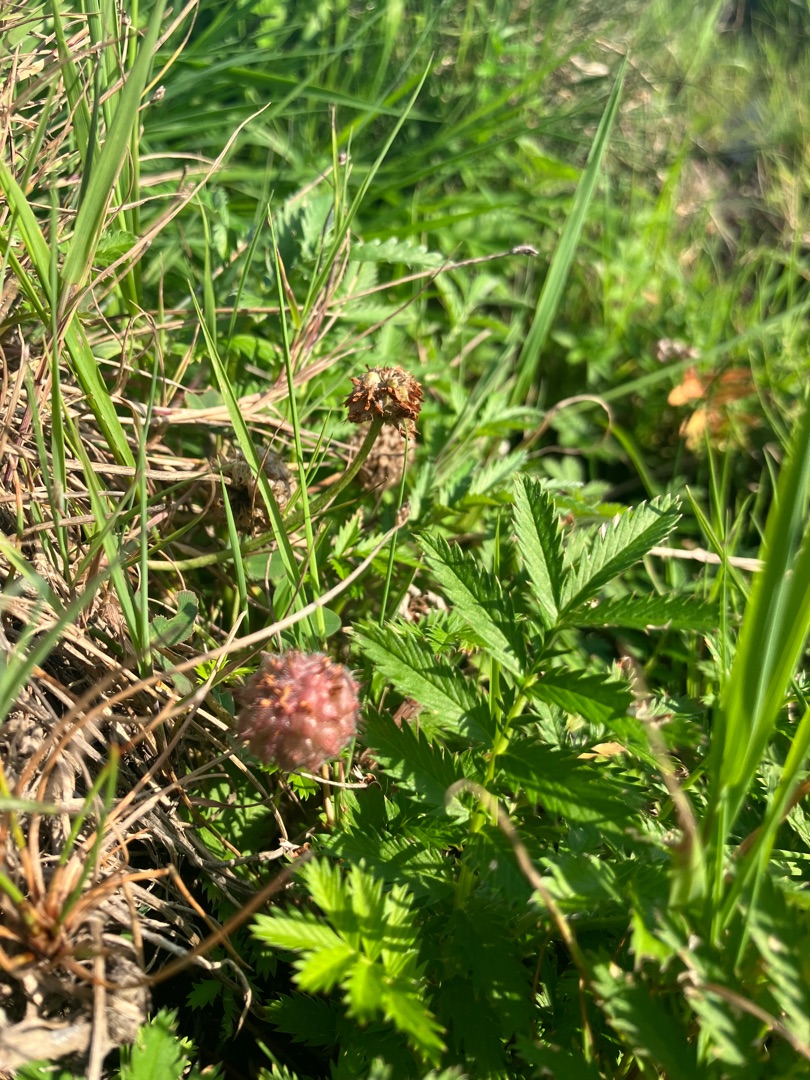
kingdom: Plantae
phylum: Tracheophyta
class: Magnoliopsida
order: Fabales
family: Fabaceae
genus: Trifolium
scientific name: Trifolium fragiferum
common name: Jordbær-kløver
